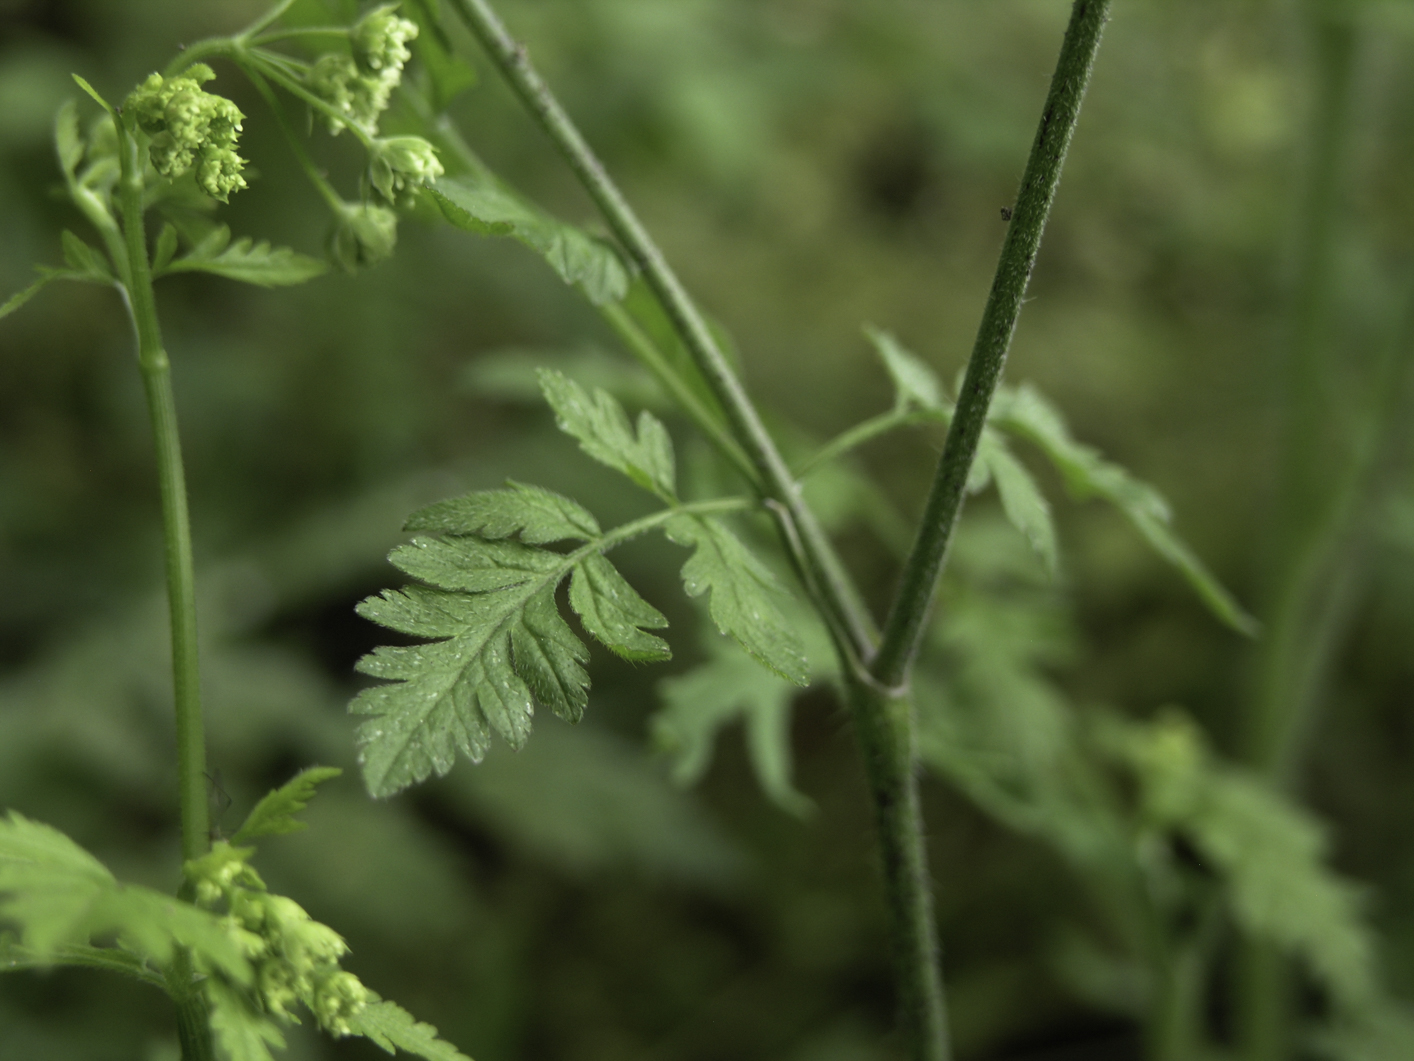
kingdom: Plantae
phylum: Tracheophyta
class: Magnoliopsida
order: Apiales
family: Apiaceae
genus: Chaerophyllum
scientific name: Chaerophyllum temulum
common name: Rough chervil
